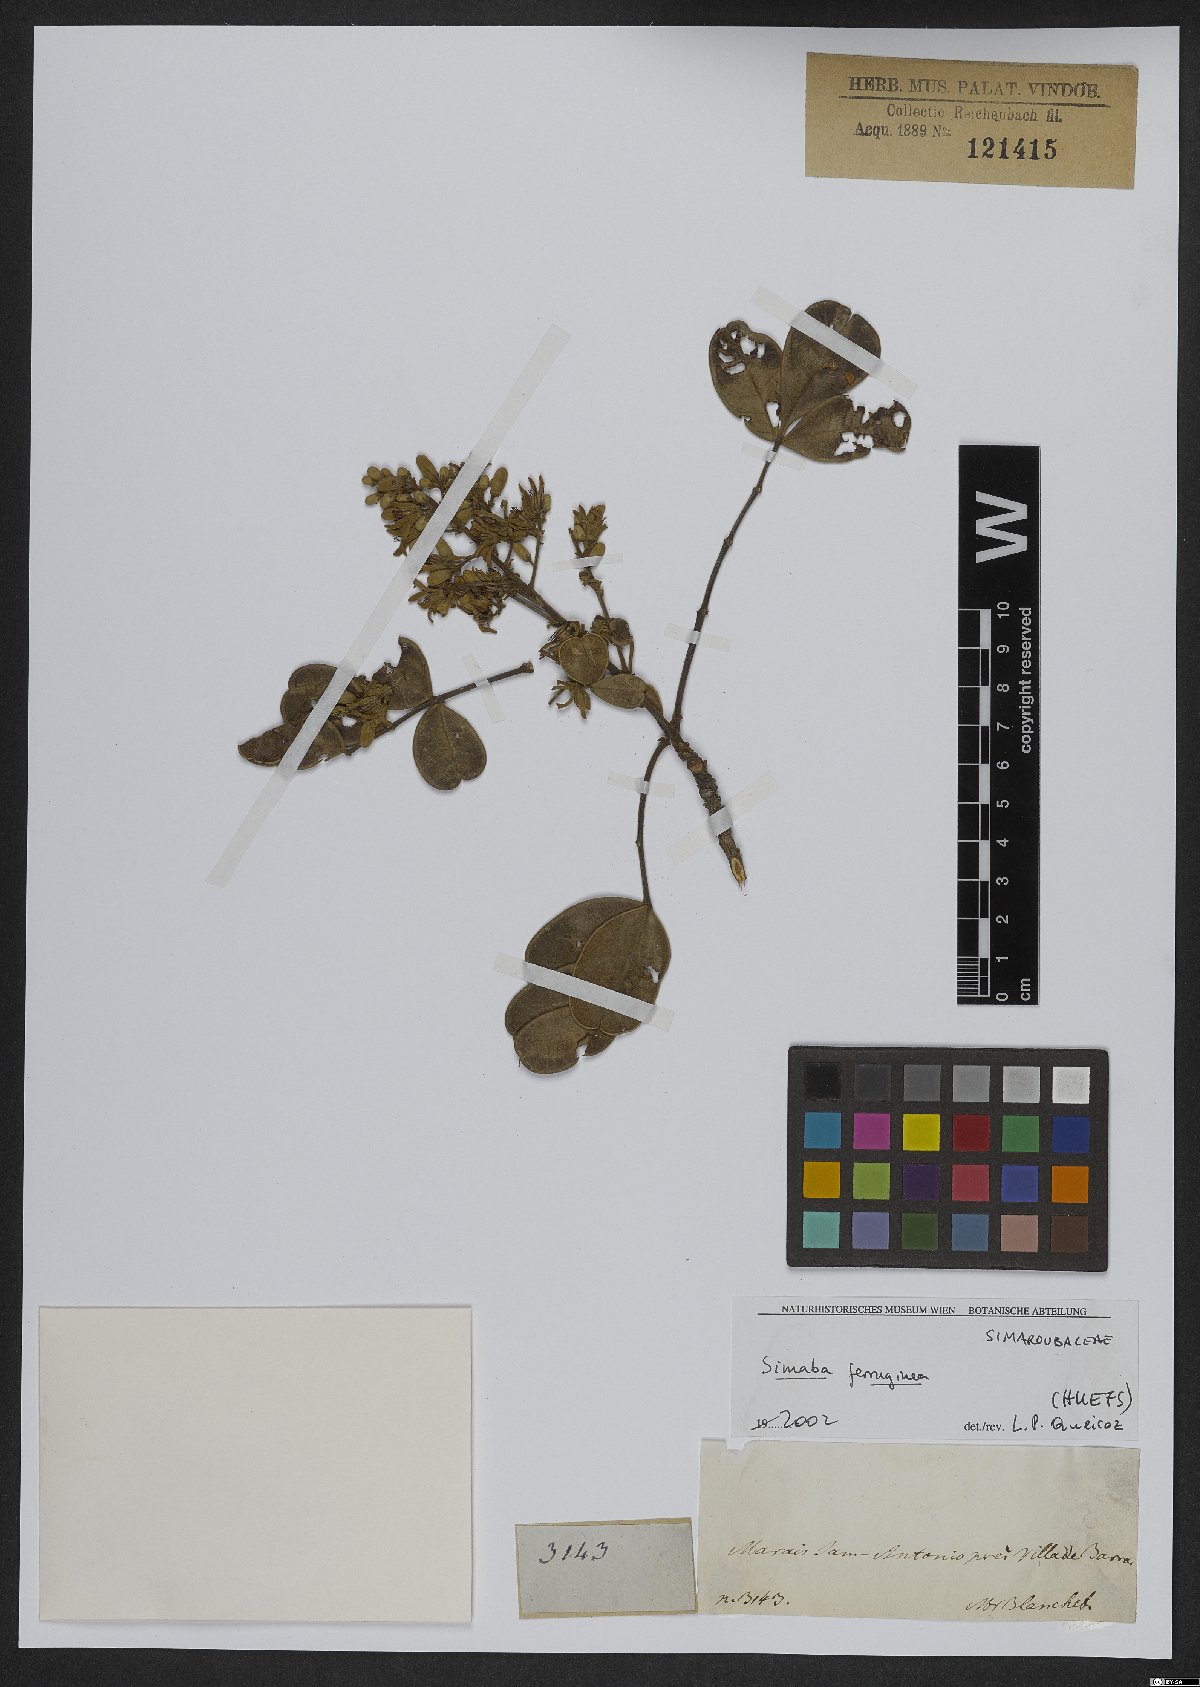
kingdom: Plantae
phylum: Tracheophyta
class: Magnoliopsida
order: Sapindales
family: Simaroubaceae
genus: Homalolepis
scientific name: Homalolepis ferruginea
